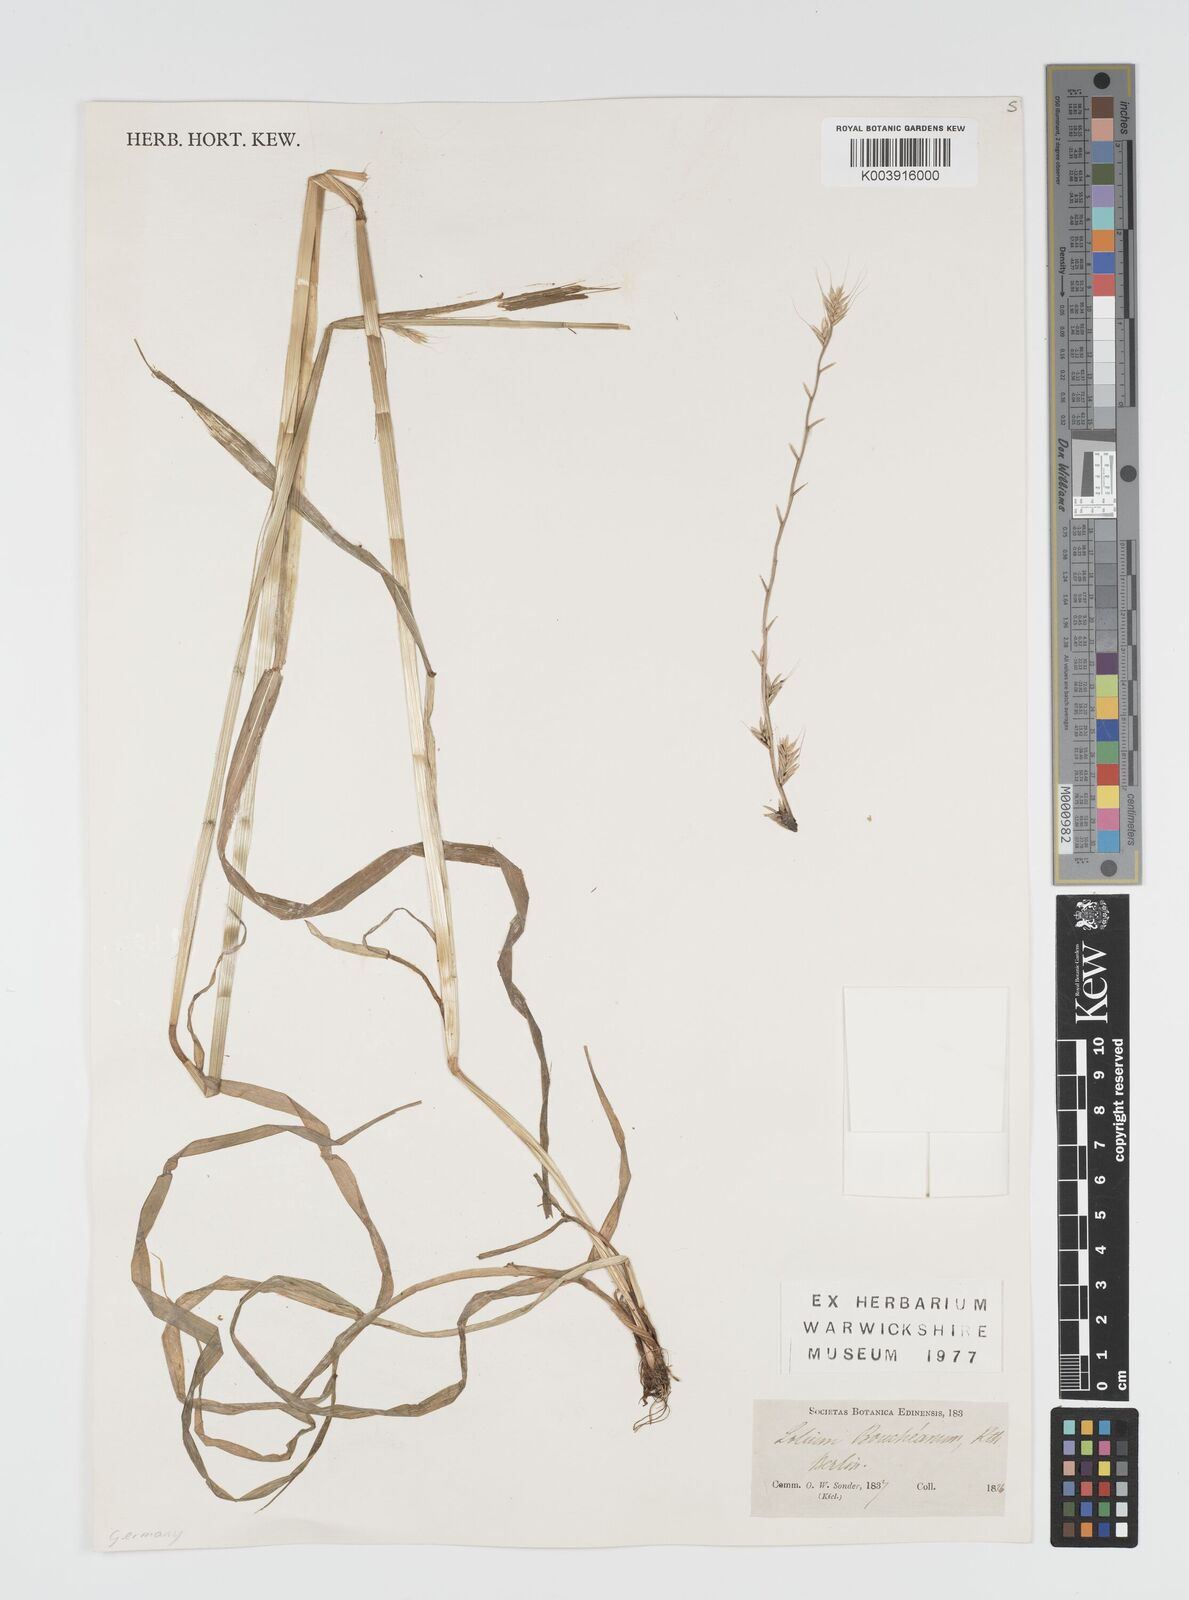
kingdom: Plantae
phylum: Tracheophyta
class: Liliopsida
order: Poales
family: Poaceae
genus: Lolium
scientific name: Lolium multiflorum
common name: Annual ryegrass
